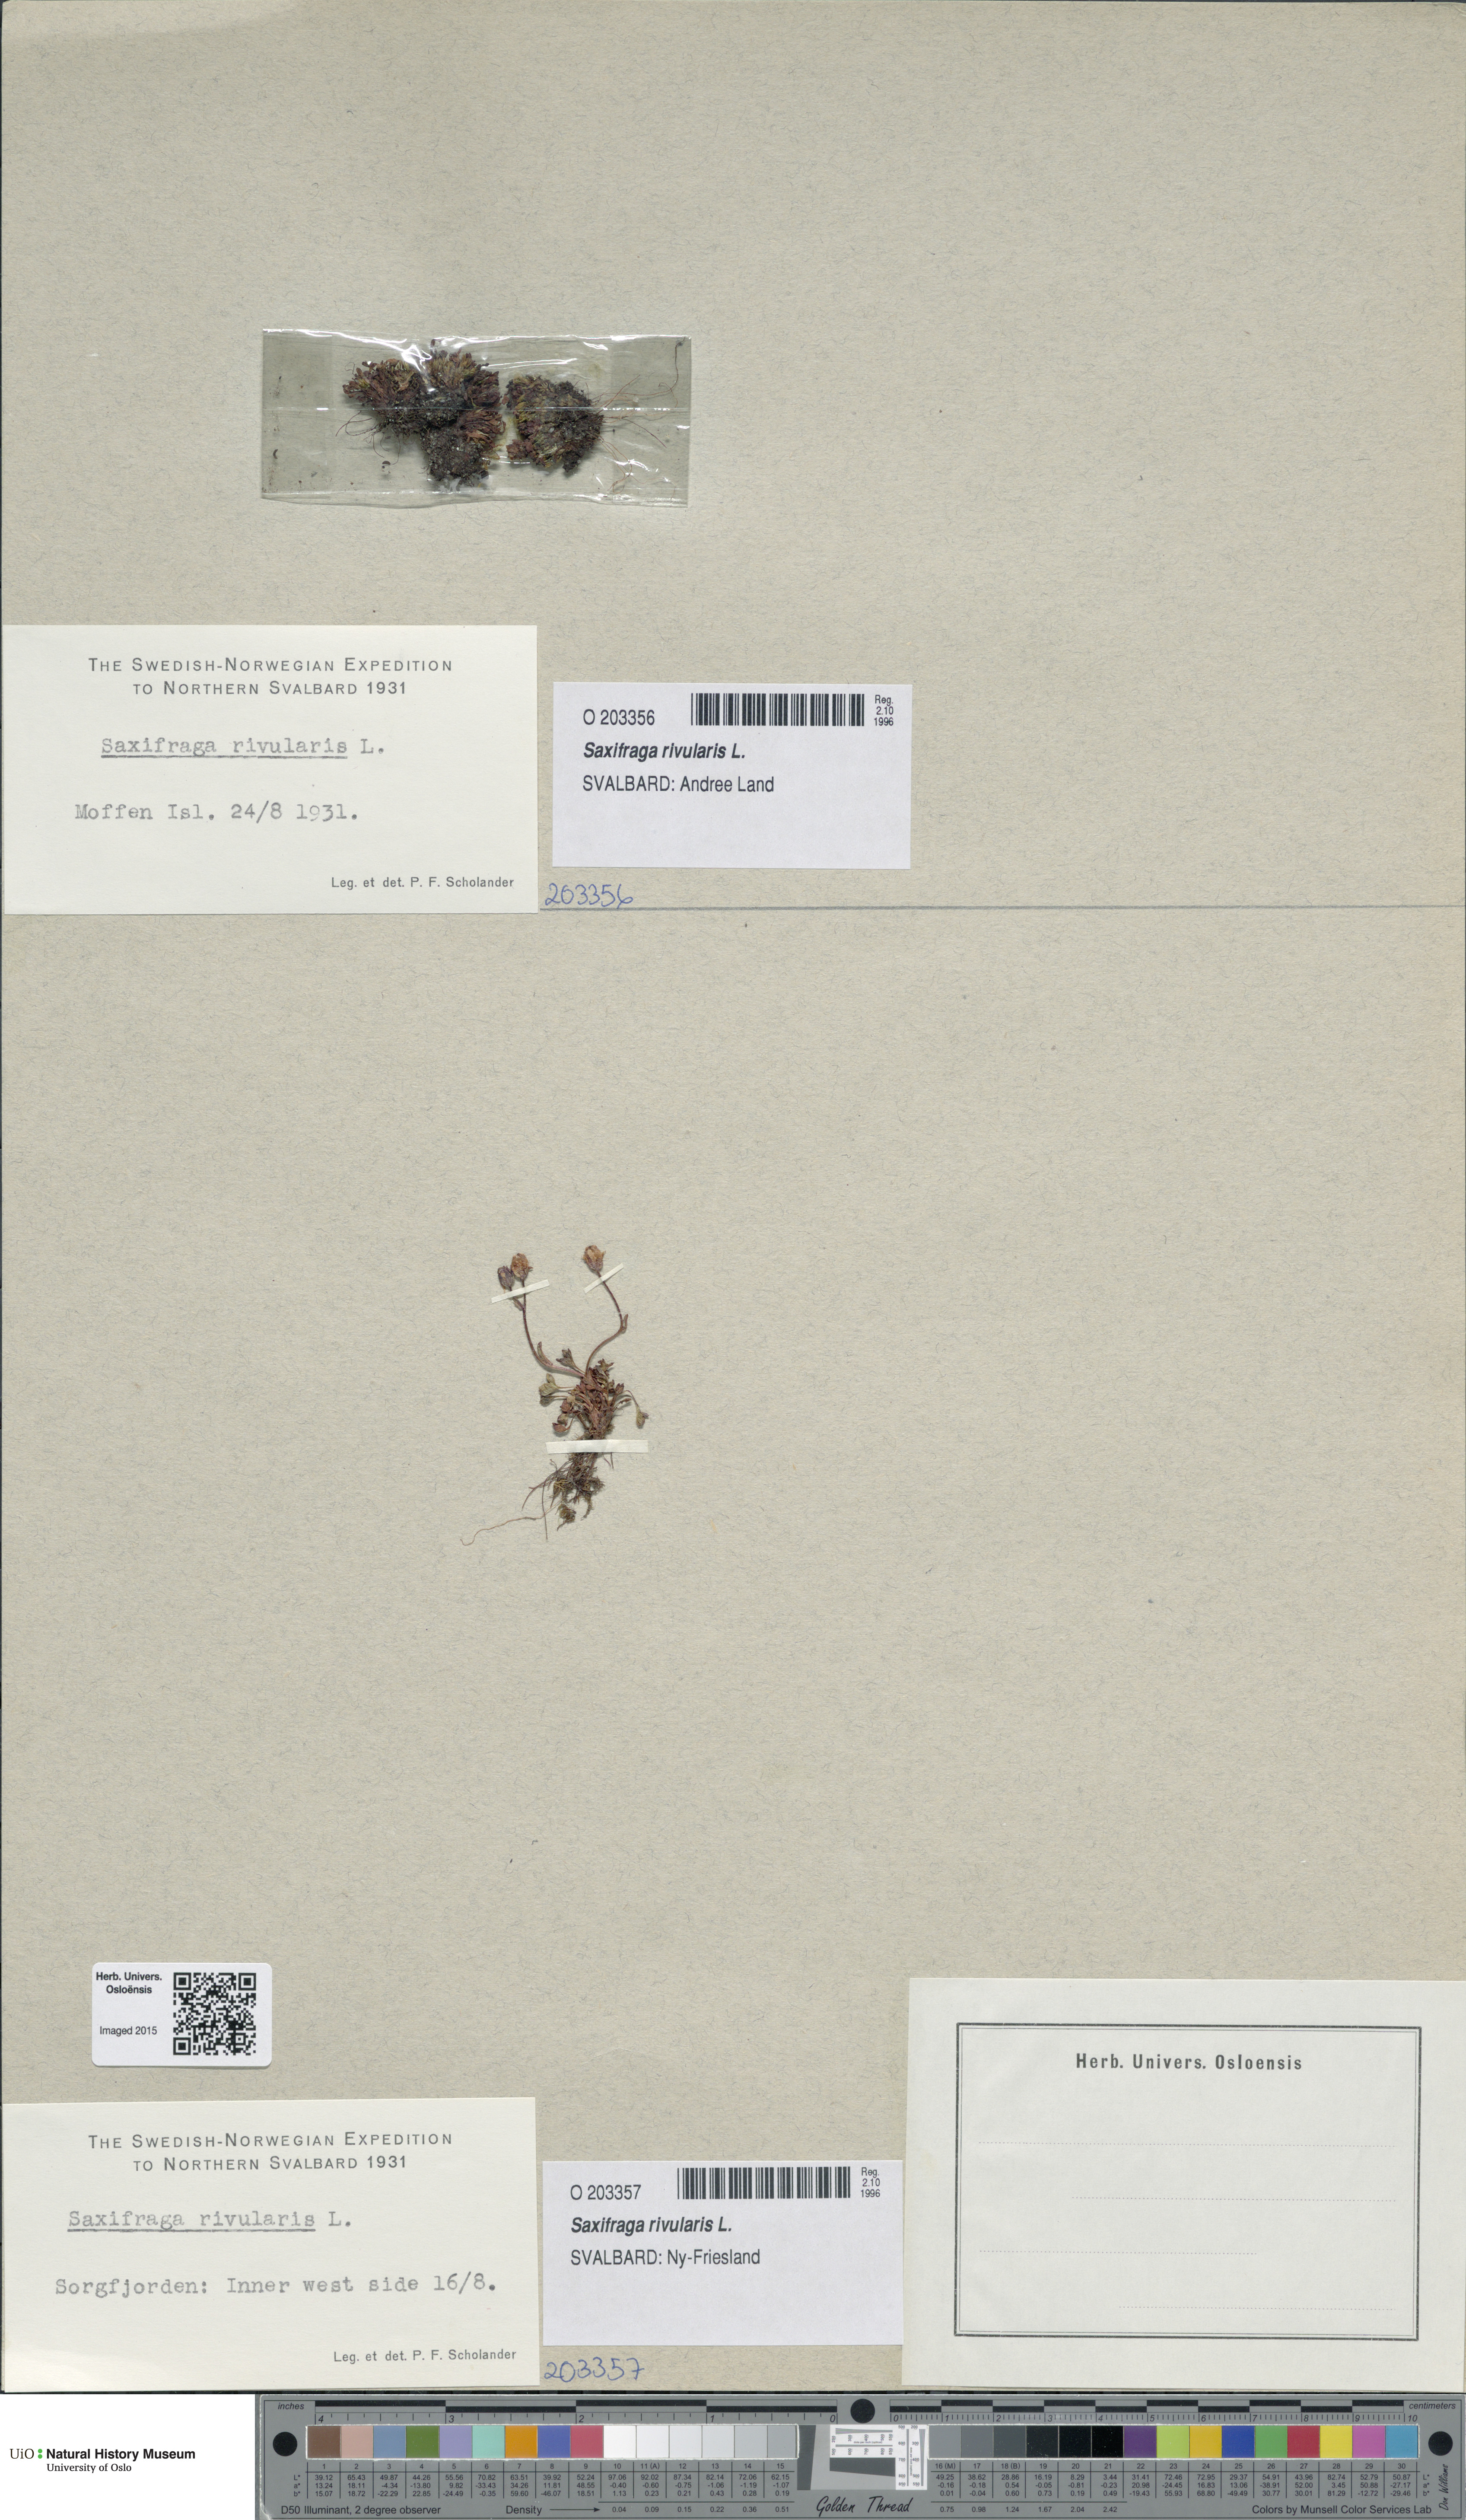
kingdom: Plantae
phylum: Tracheophyta
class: Magnoliopsida
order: Saxifragales
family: Saxifragaceae
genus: Saxifraga
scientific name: Saxifraga rivularis
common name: Highland saxifrage
